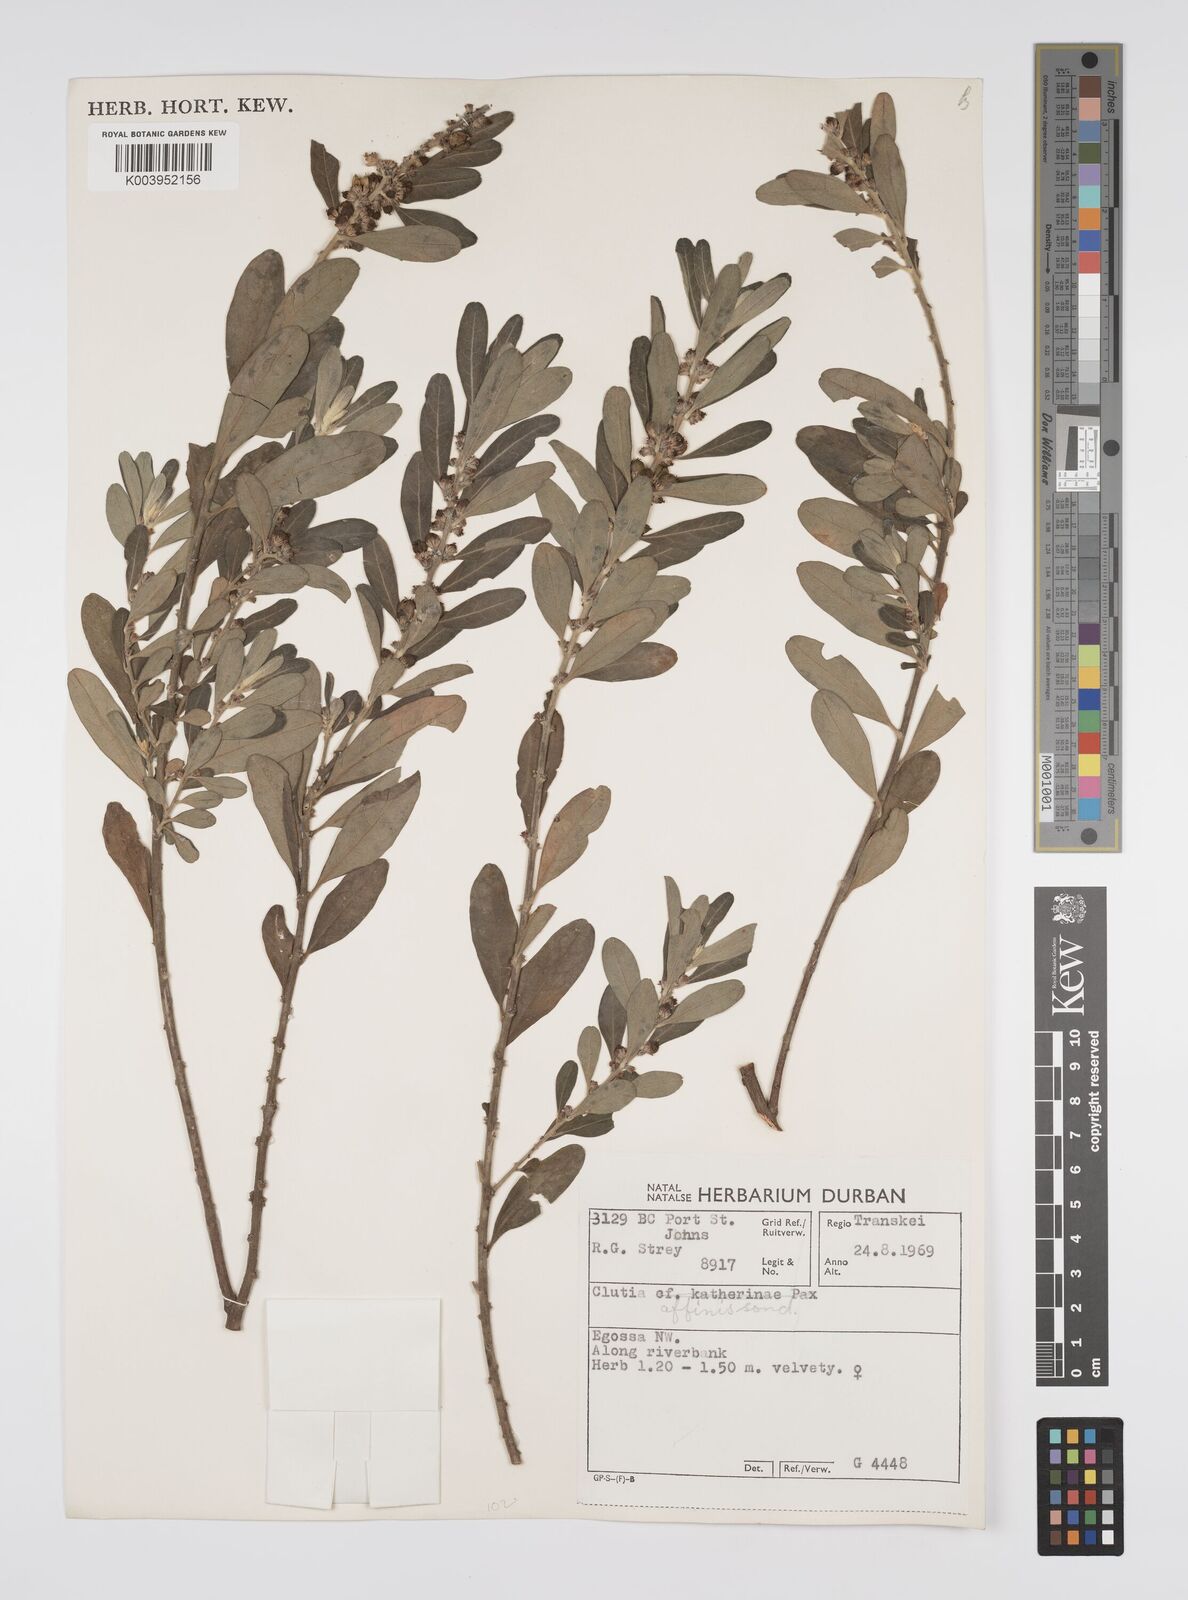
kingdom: Plantae
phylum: Tracheophyta
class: Magnoliopsida
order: Malpighiales
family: Peraceae
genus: Clutia
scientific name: Clutia affinis
